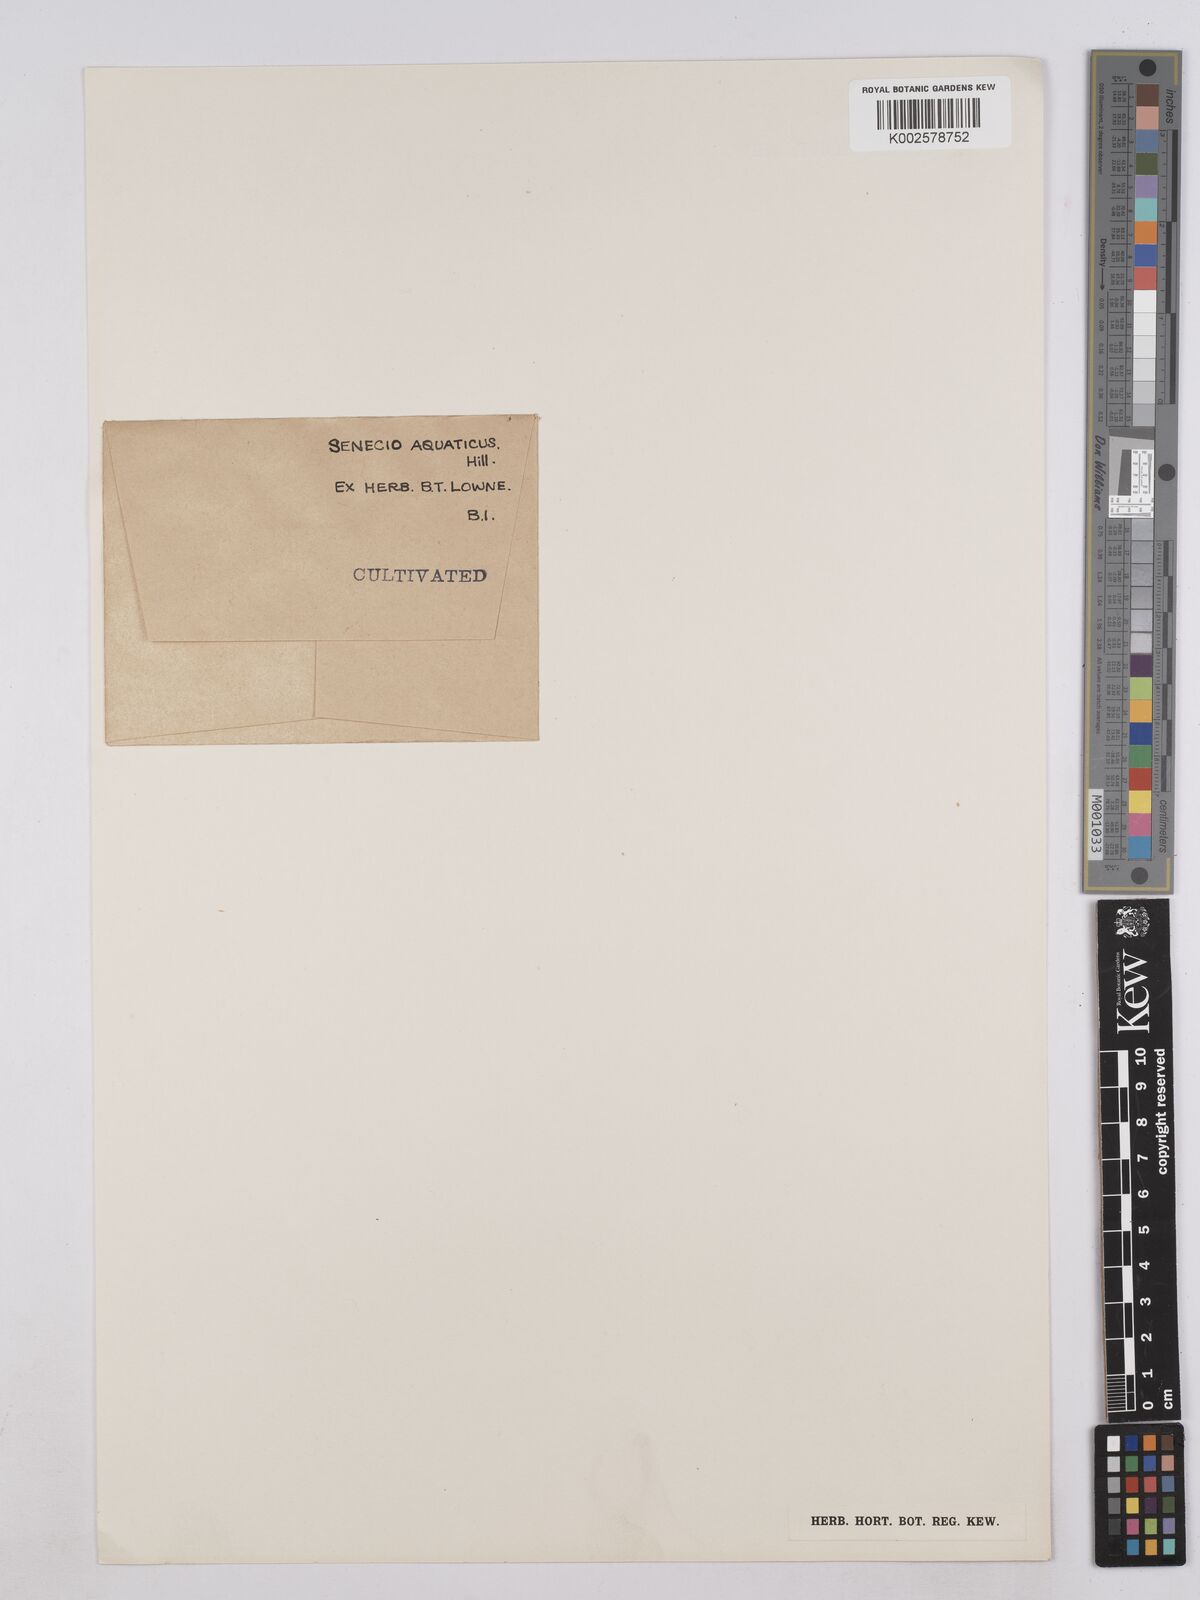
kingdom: Plantae
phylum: Tracheophyta
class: Magnoliopsida
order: Asterales
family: Asteraceae
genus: Senecio
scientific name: Senecio
